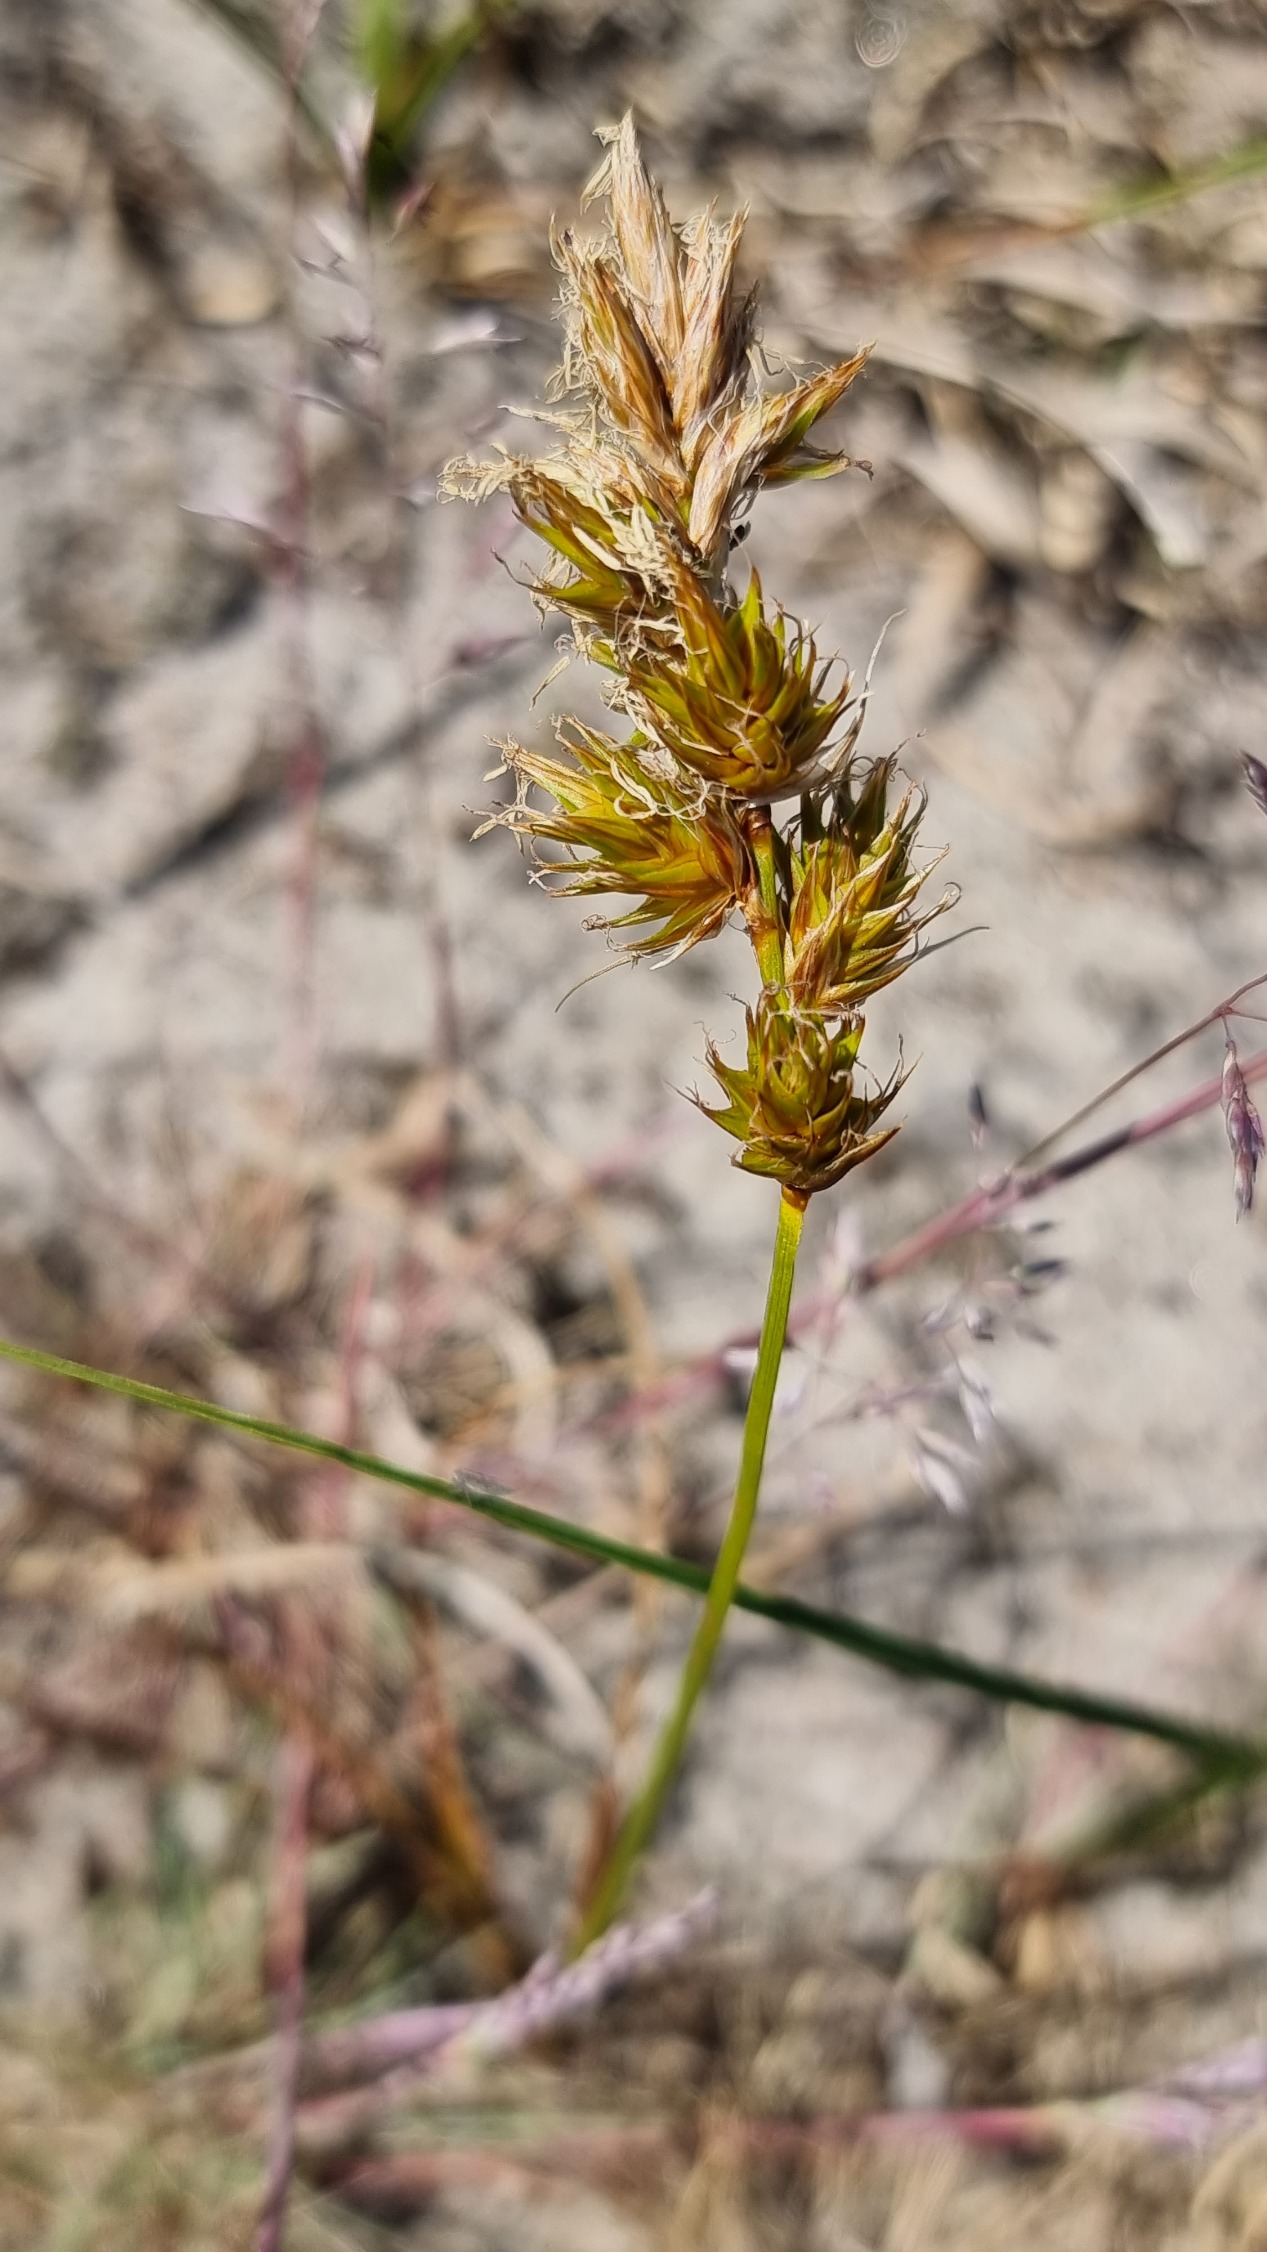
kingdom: Plantae
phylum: Tracheophyta
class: Liliopsida
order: Poales
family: Cyperaceae
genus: Carex
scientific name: Carex arenaria
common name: Sand-star
